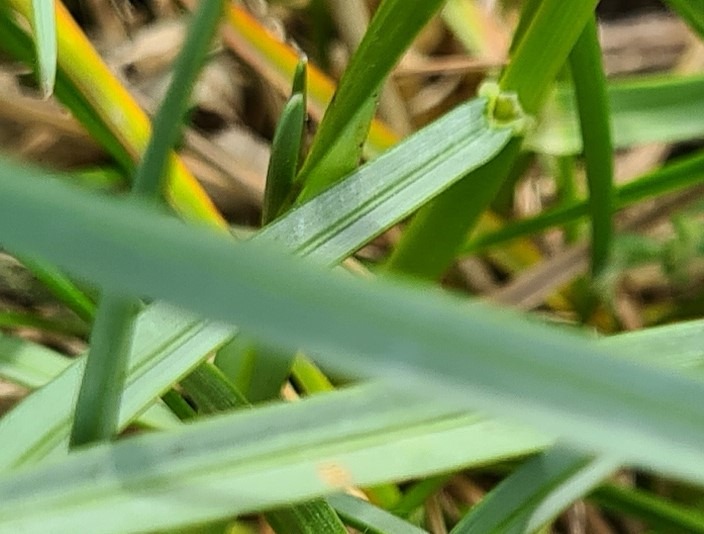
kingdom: Plantae
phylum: Tracheophyta
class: Liliopsida
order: Poales
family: Poaceae
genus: Helictochloa
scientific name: Helictochloa pratensis
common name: Eng-havre
